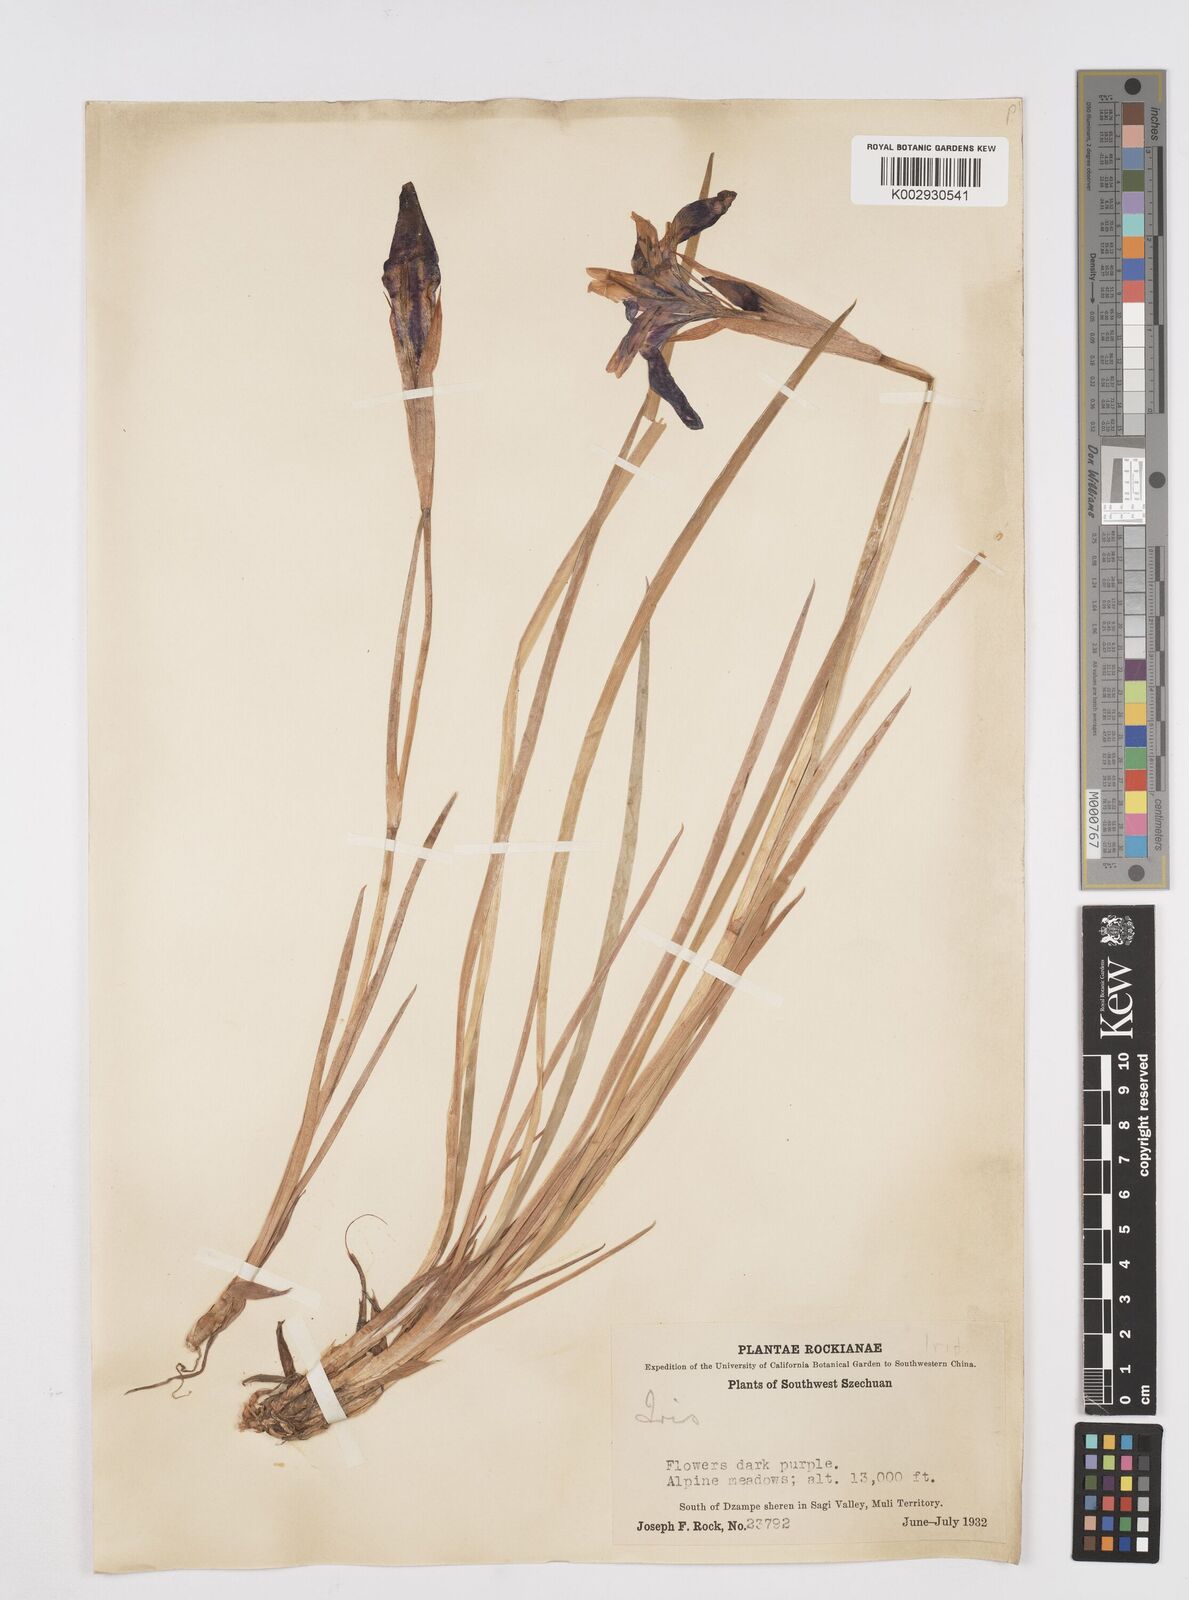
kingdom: Plantae
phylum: Tracheophyta
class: Liliopsida
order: Asparagales
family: Iridaceae
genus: Iris
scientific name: Iris bulleyana
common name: Southwest iris
